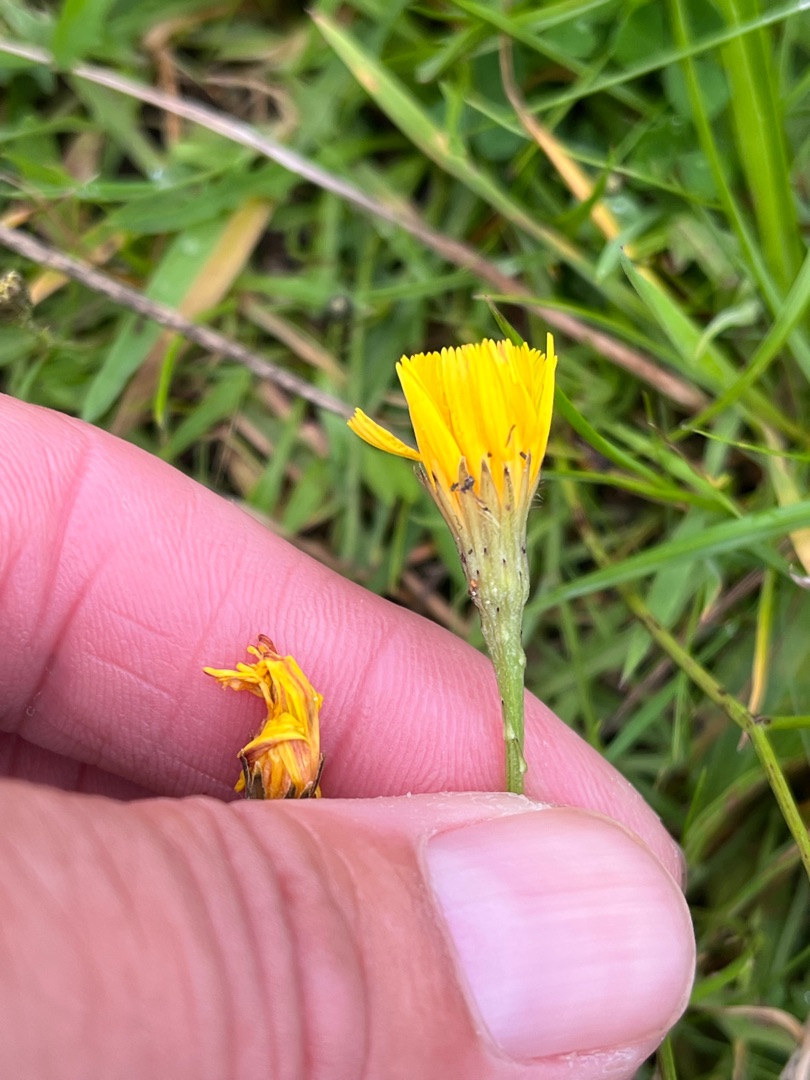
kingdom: Plantae
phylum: Tracheophyta
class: Magnoliopsida
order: Asterales
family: Asteraceae
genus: Scorzoneroides
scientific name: Scorzoneroides autumnalis
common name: Høst-borst
